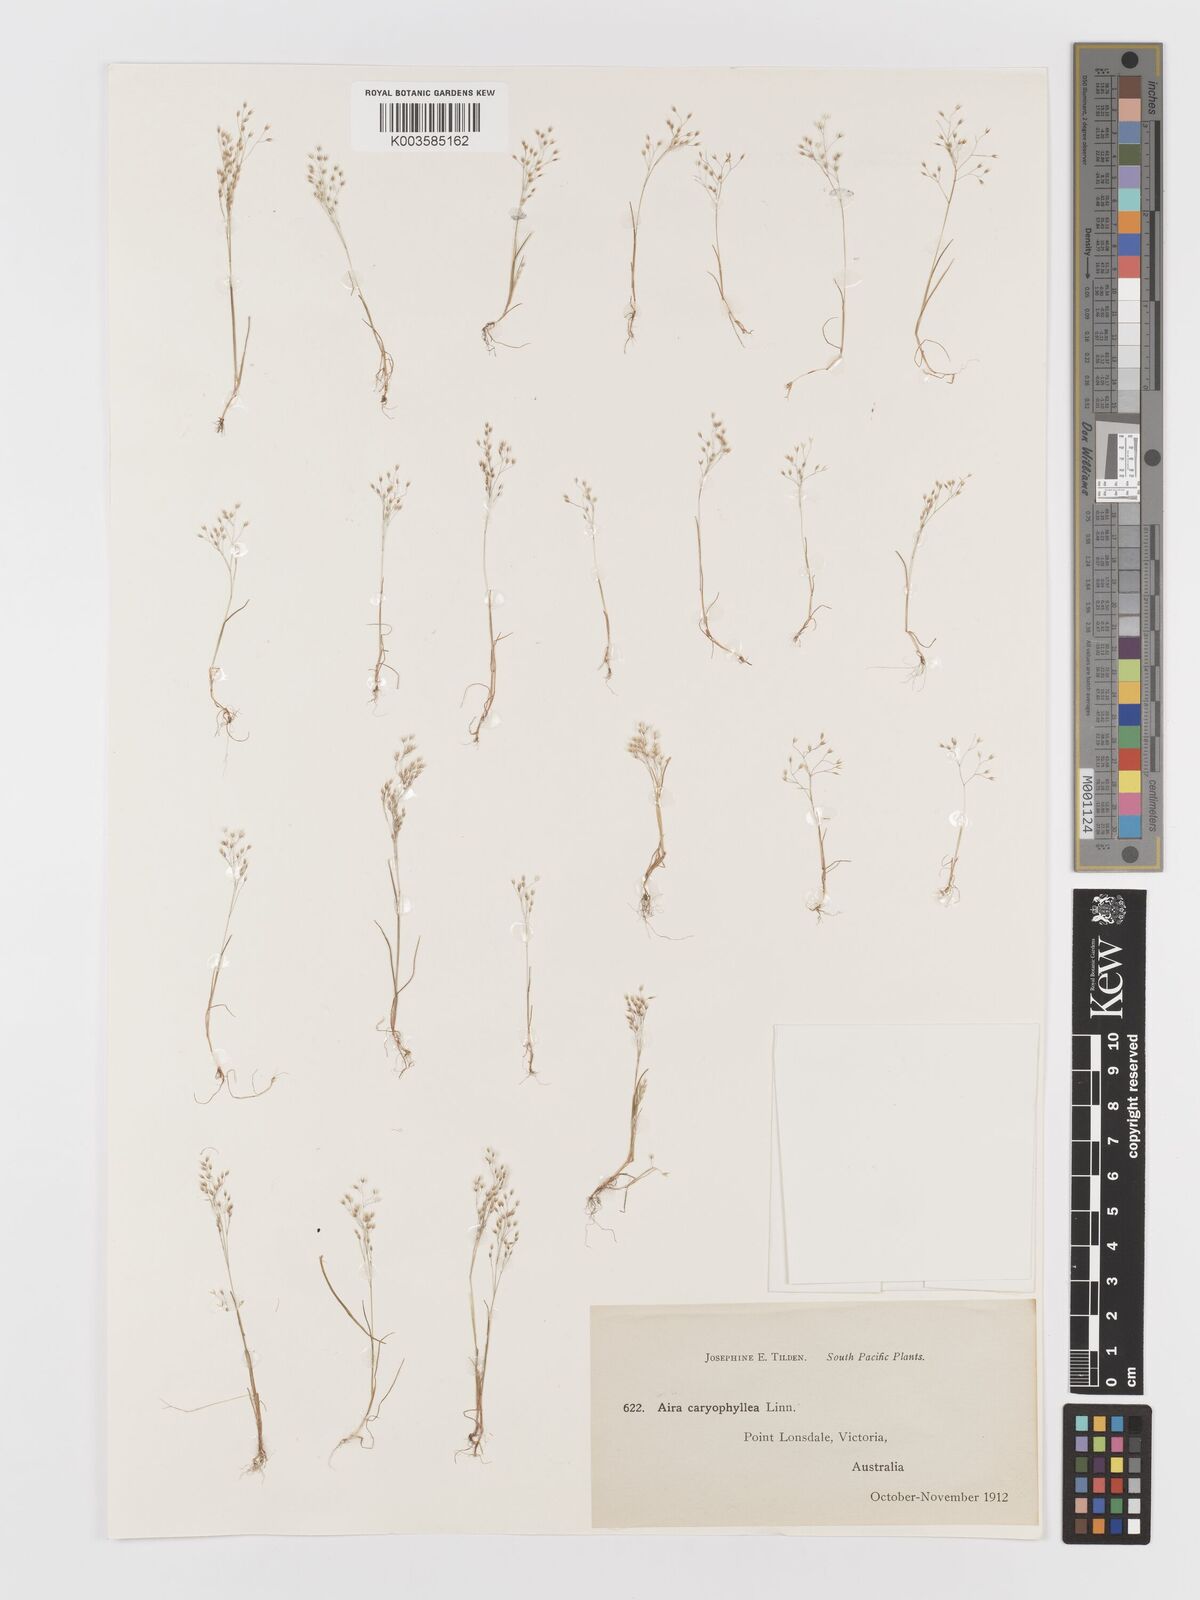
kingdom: Plantae
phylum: Tracheophyta
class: Liliopsida
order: Poales
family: Poaceae
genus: Aira
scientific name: Aira elegans
